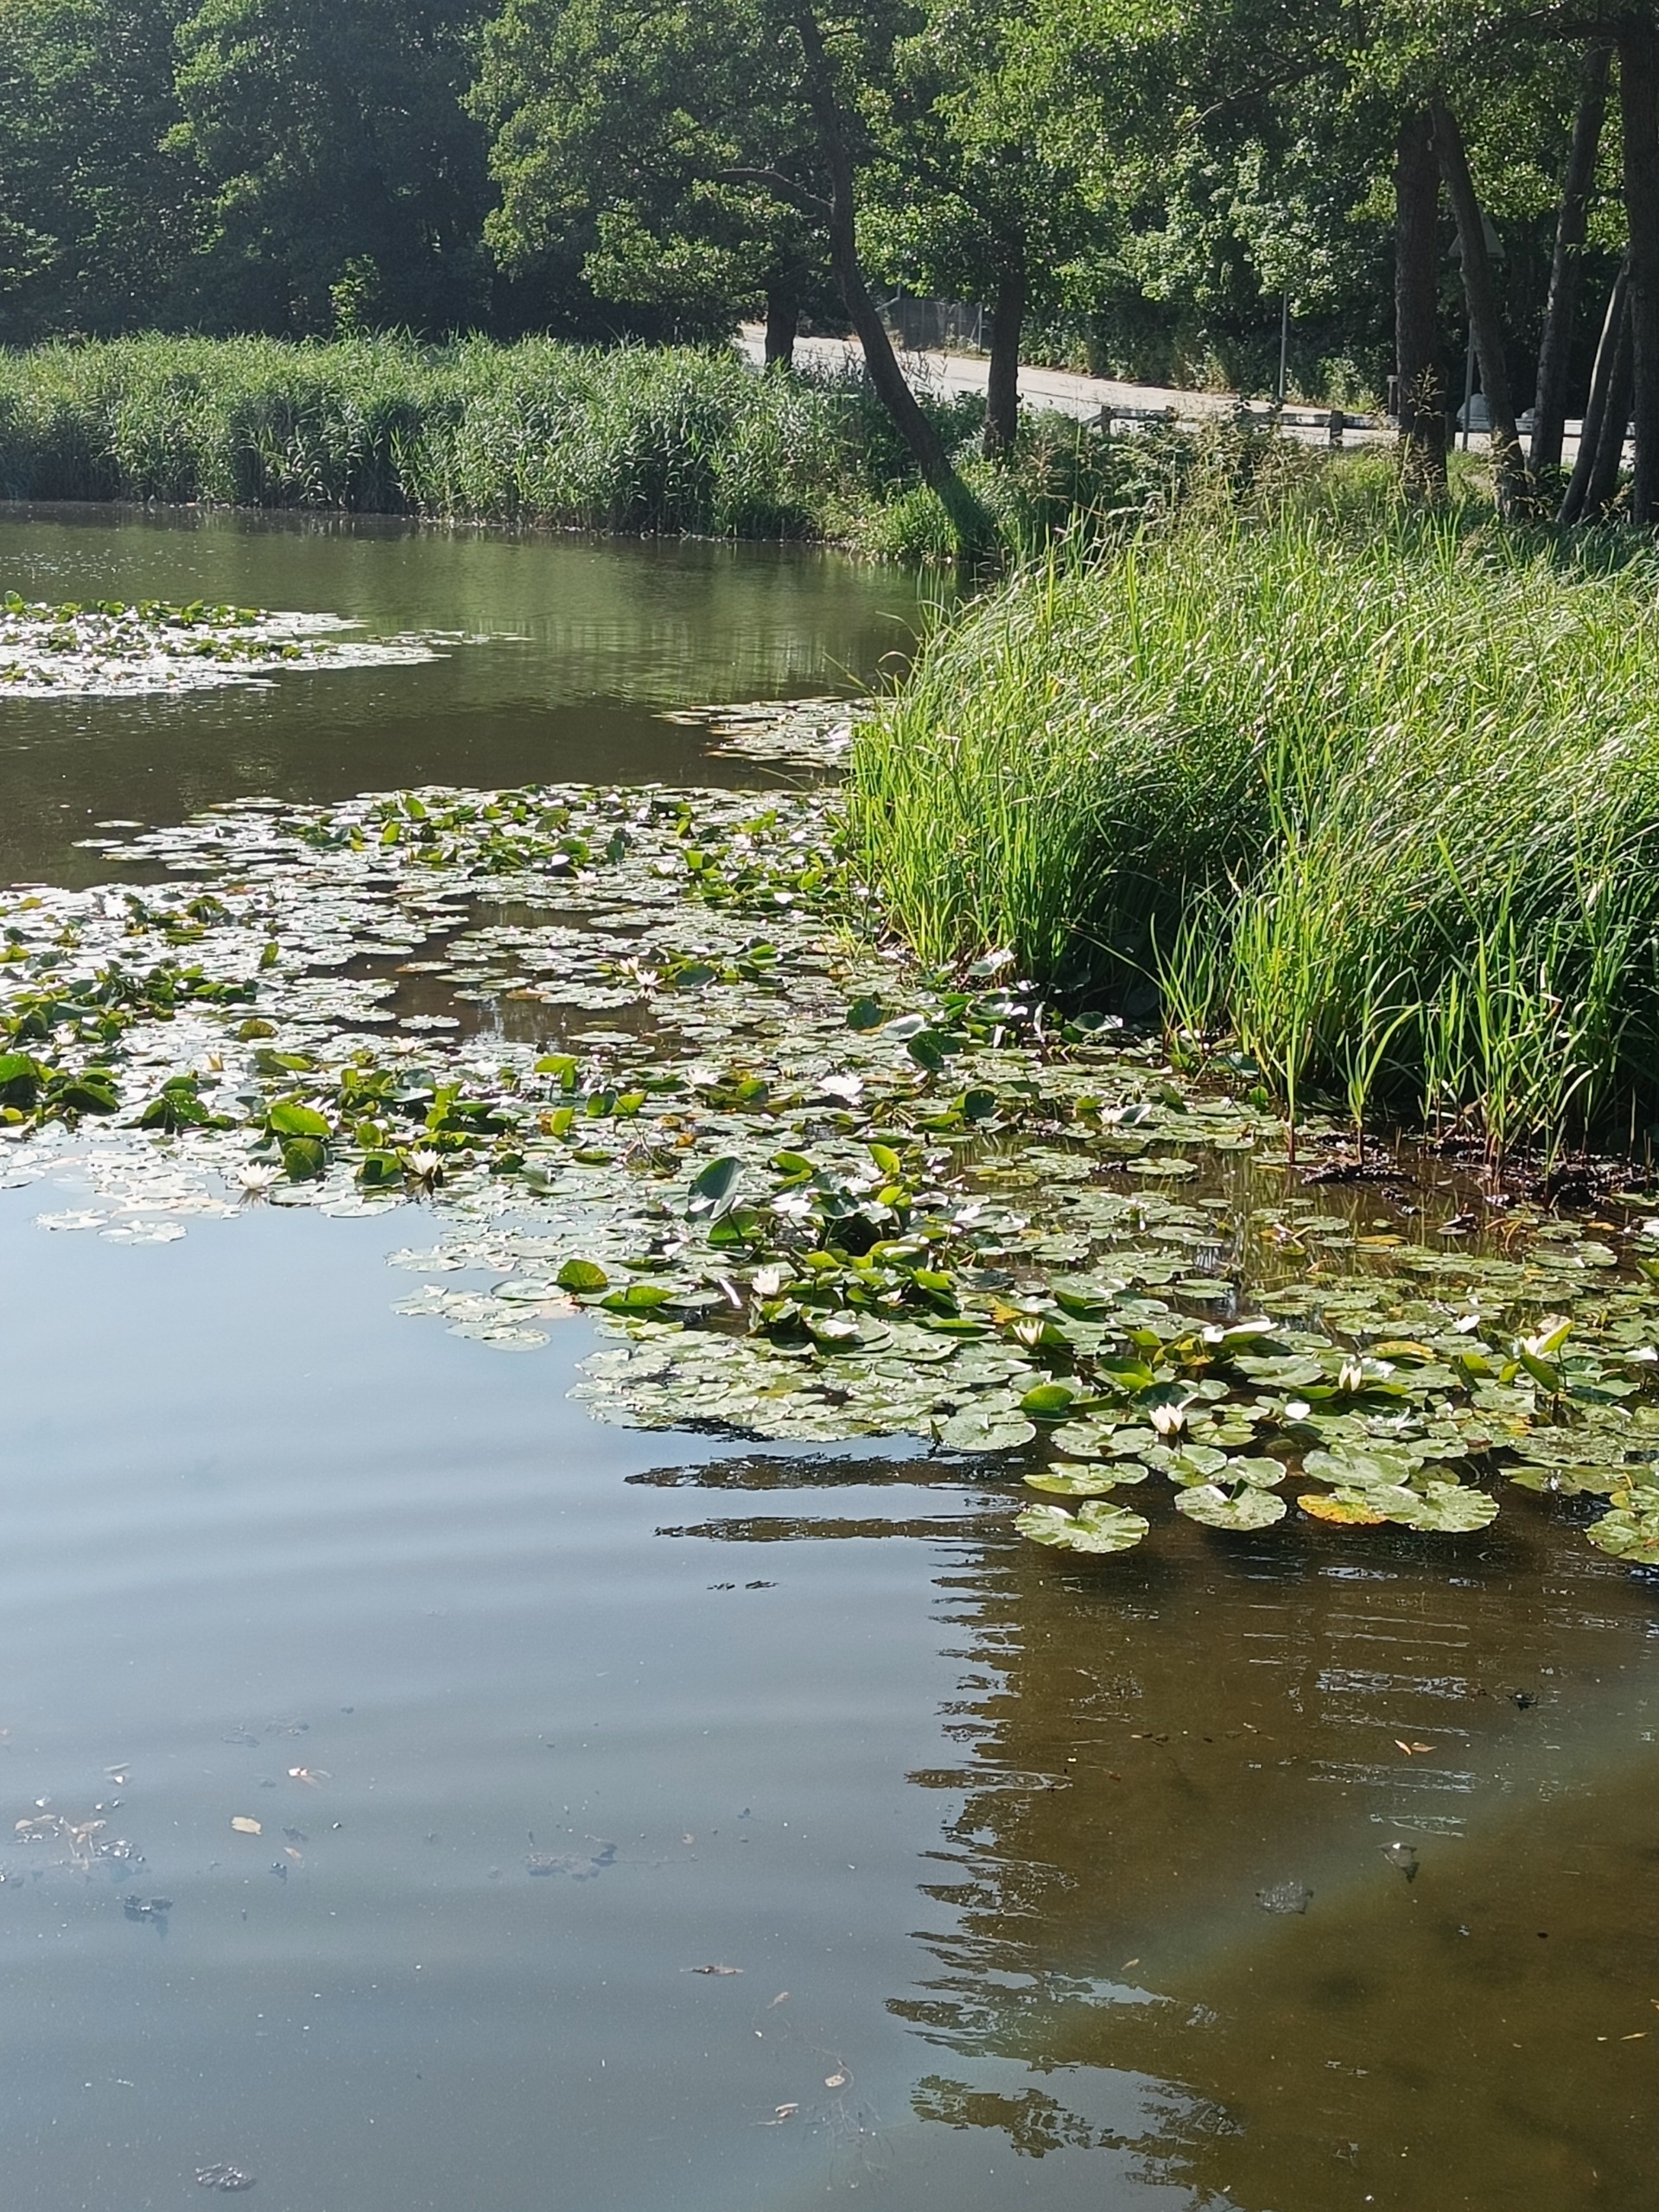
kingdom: Plantae
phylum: Tracheophyta
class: Magnoliopsida
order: Nymphaeales
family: Nymphaeaceae
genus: Nymphaea
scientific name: Nymphaea alba
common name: Hvid åkande
